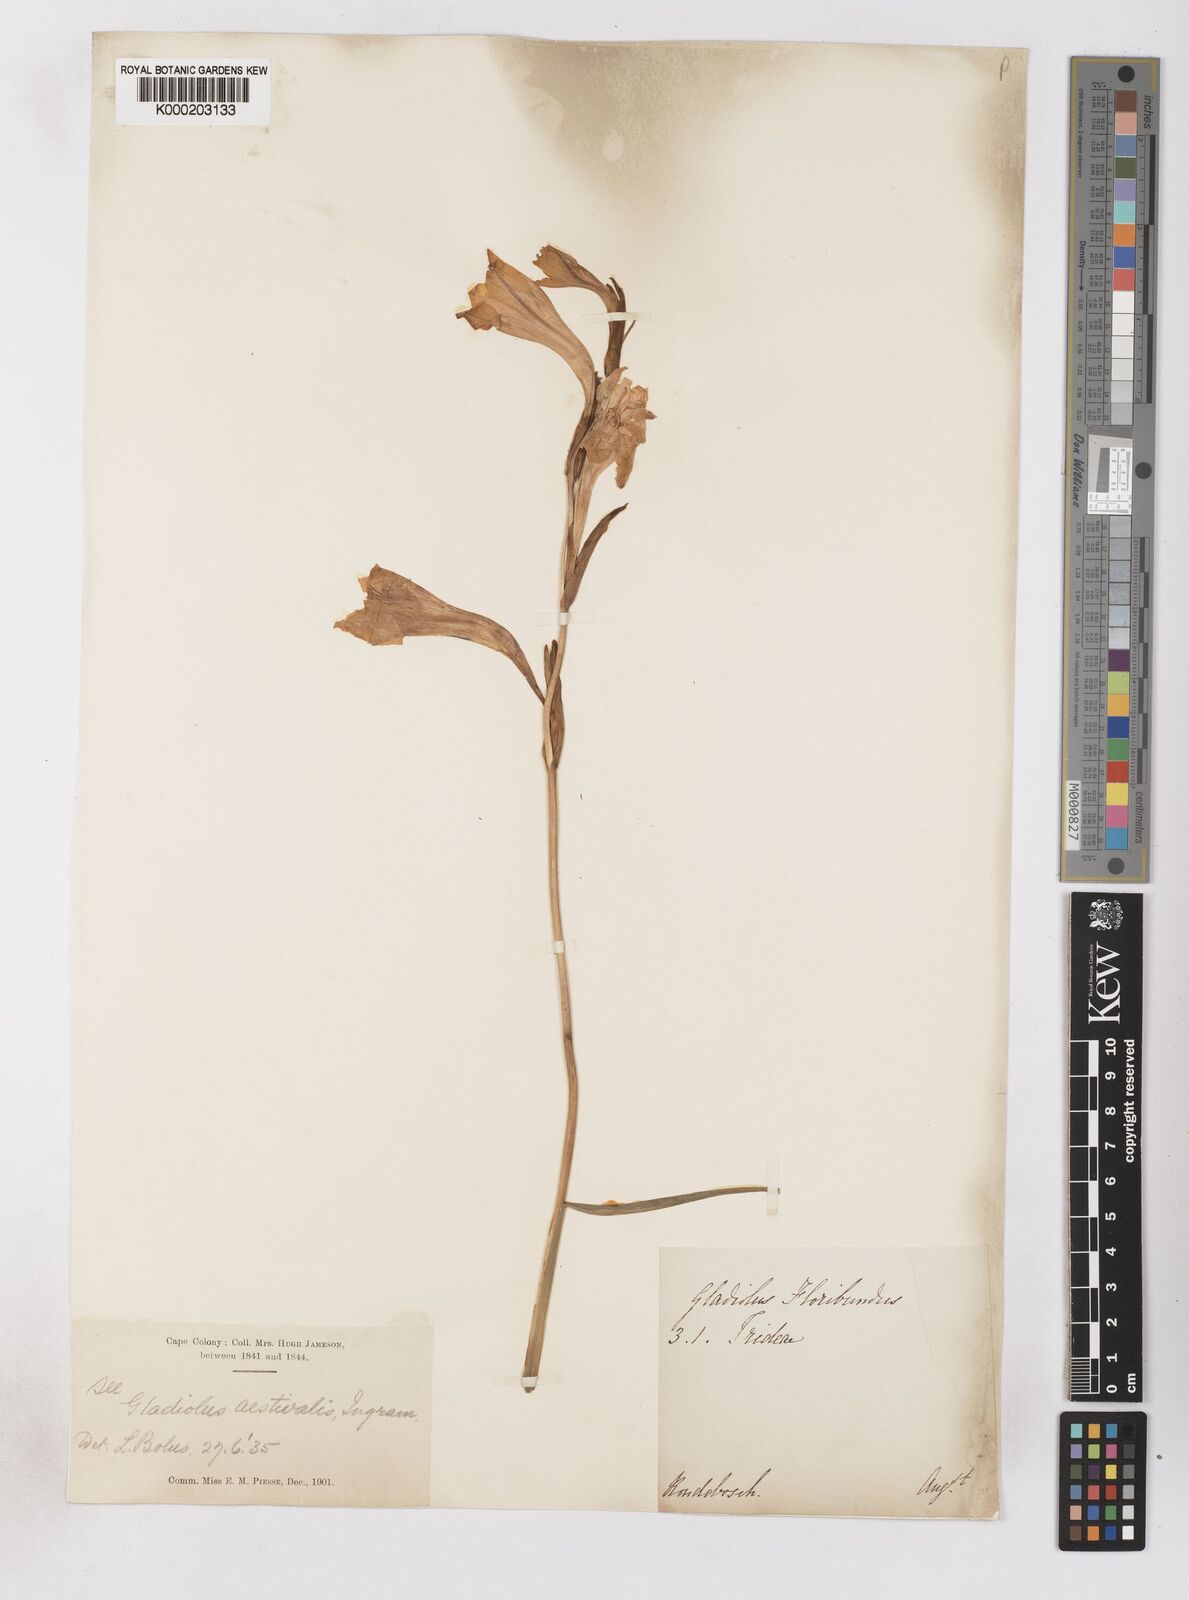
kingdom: Plantae
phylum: Tracheophyta
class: Liliopsida
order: Asparagales
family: Iridaceae
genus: Gladiolus
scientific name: Gladiolus tristis
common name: Ever-flowering gladiolus
